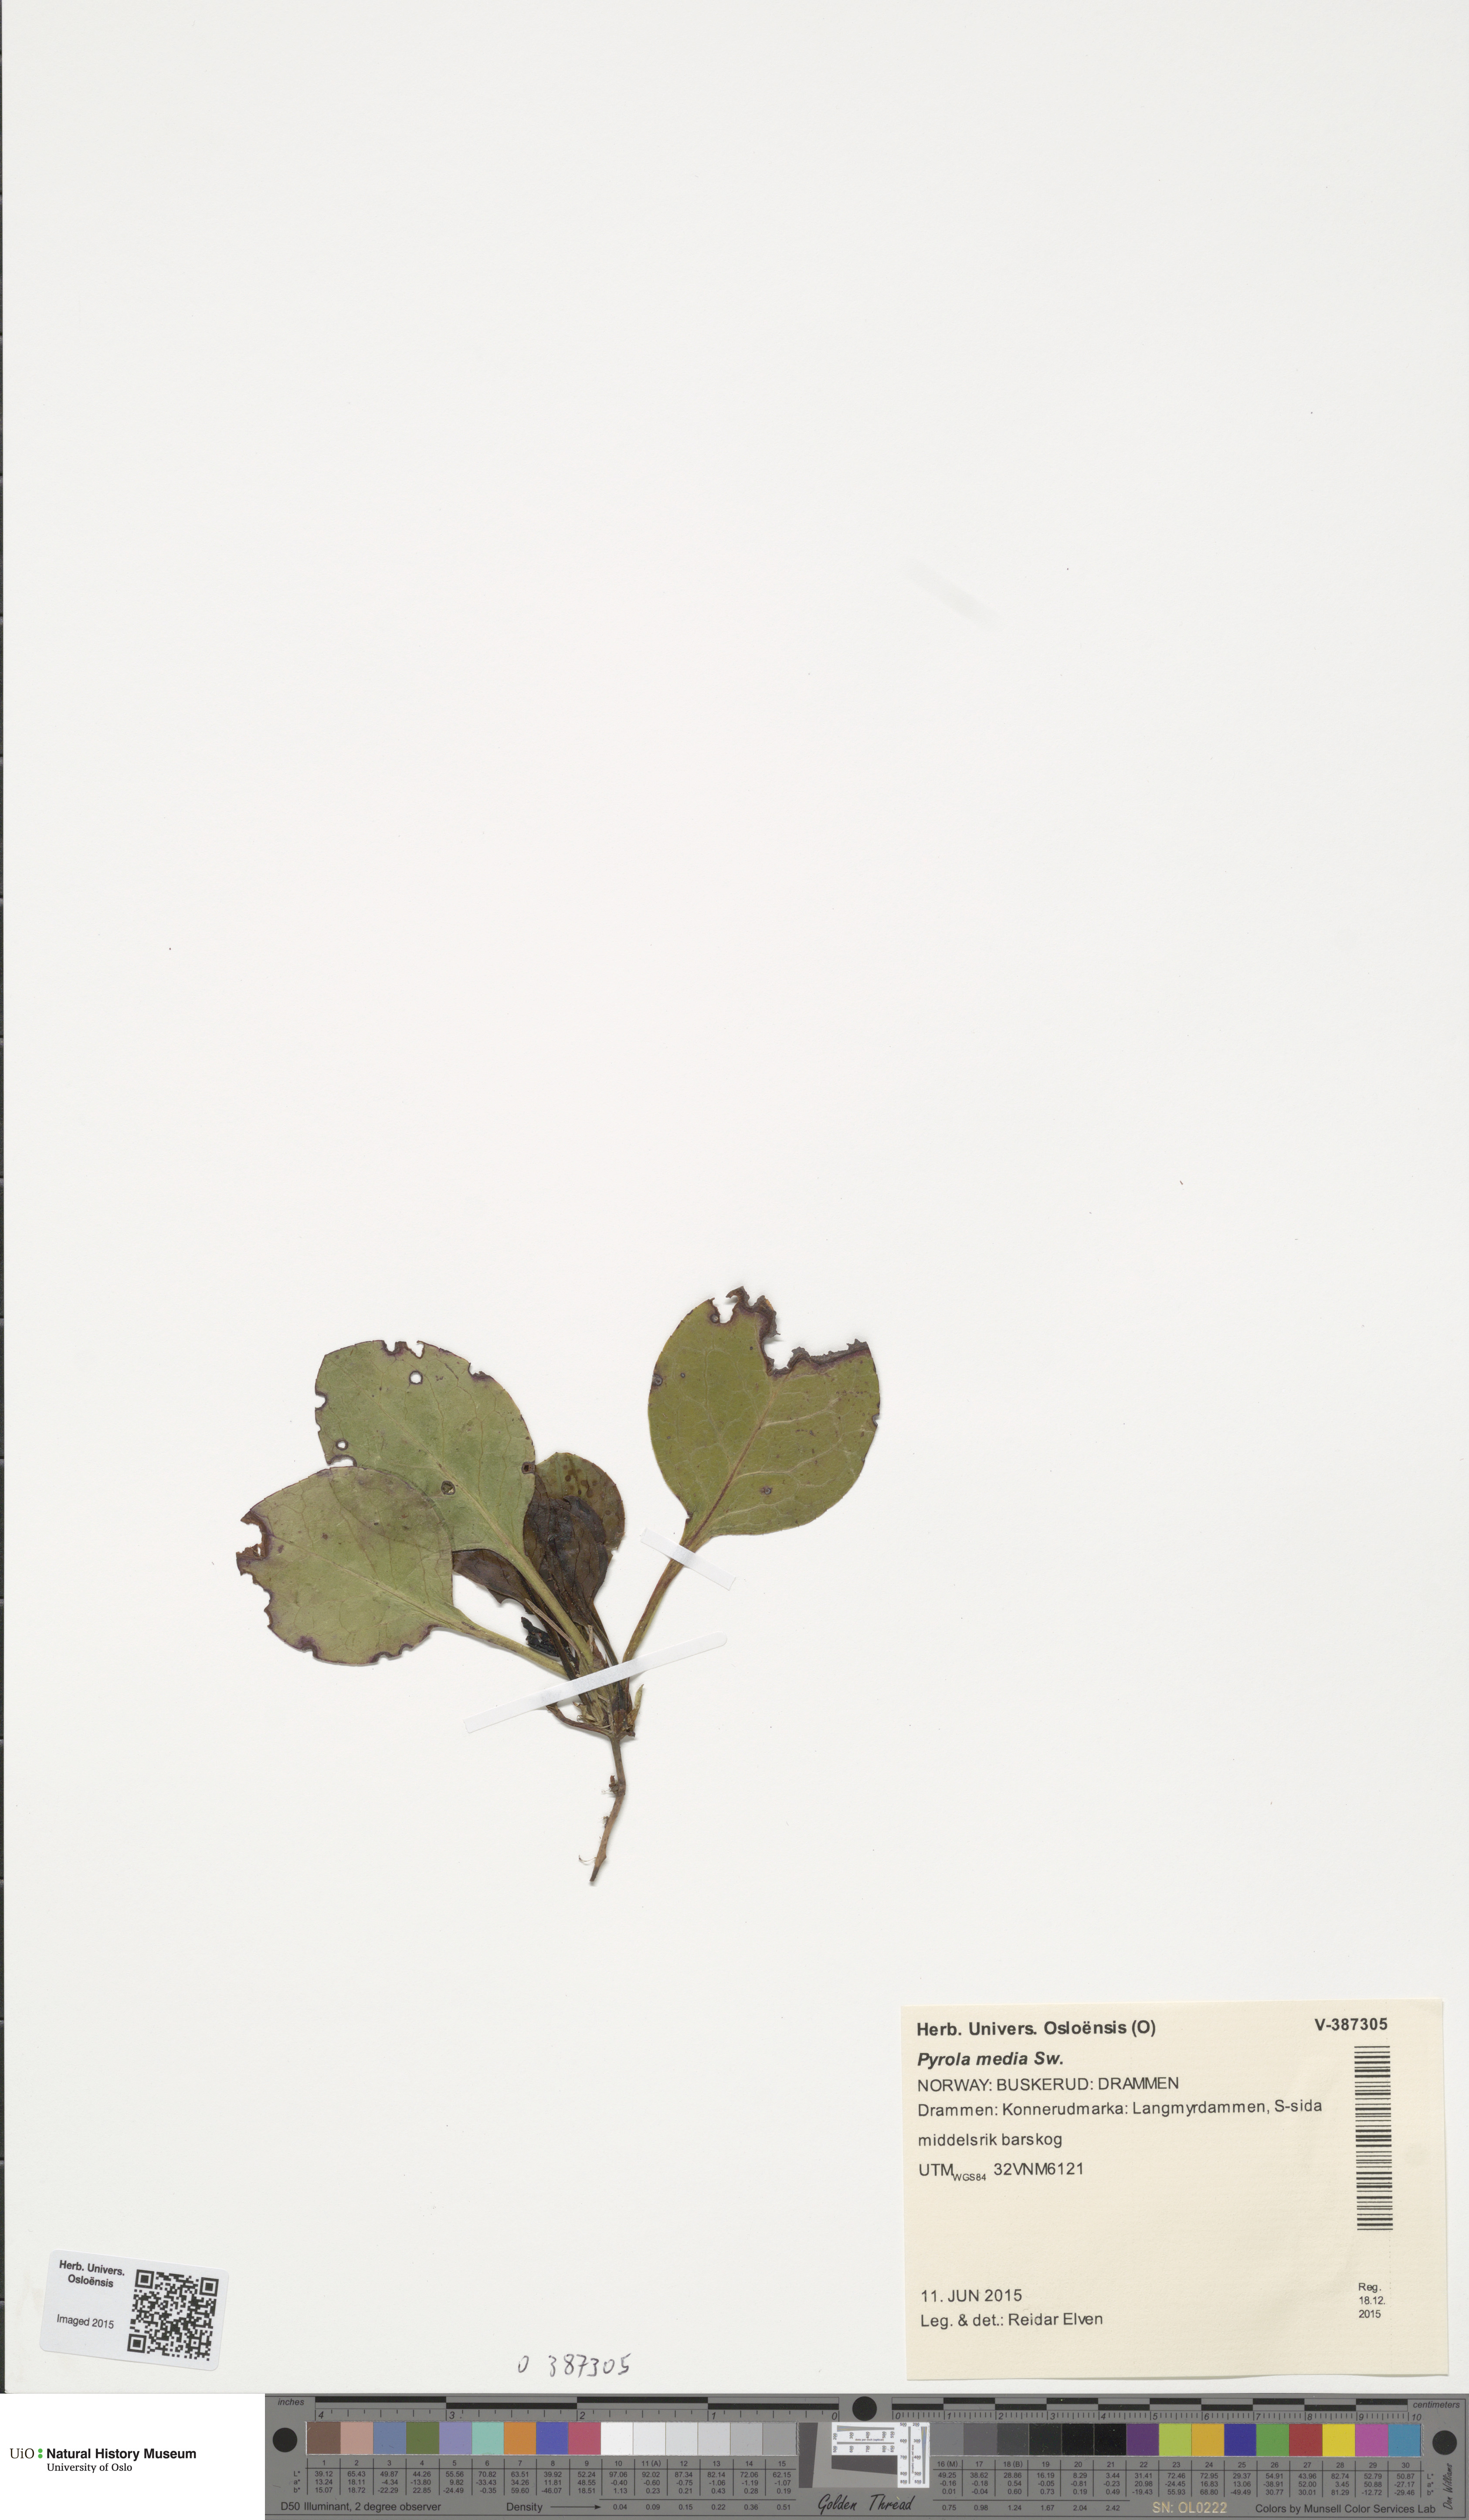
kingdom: Plantae
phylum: Tracheophyta
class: Magnoliopsida
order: Ericales
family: Ericaceae
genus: Pyrola
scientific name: Pyrola media
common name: Intermediate wintergreen
